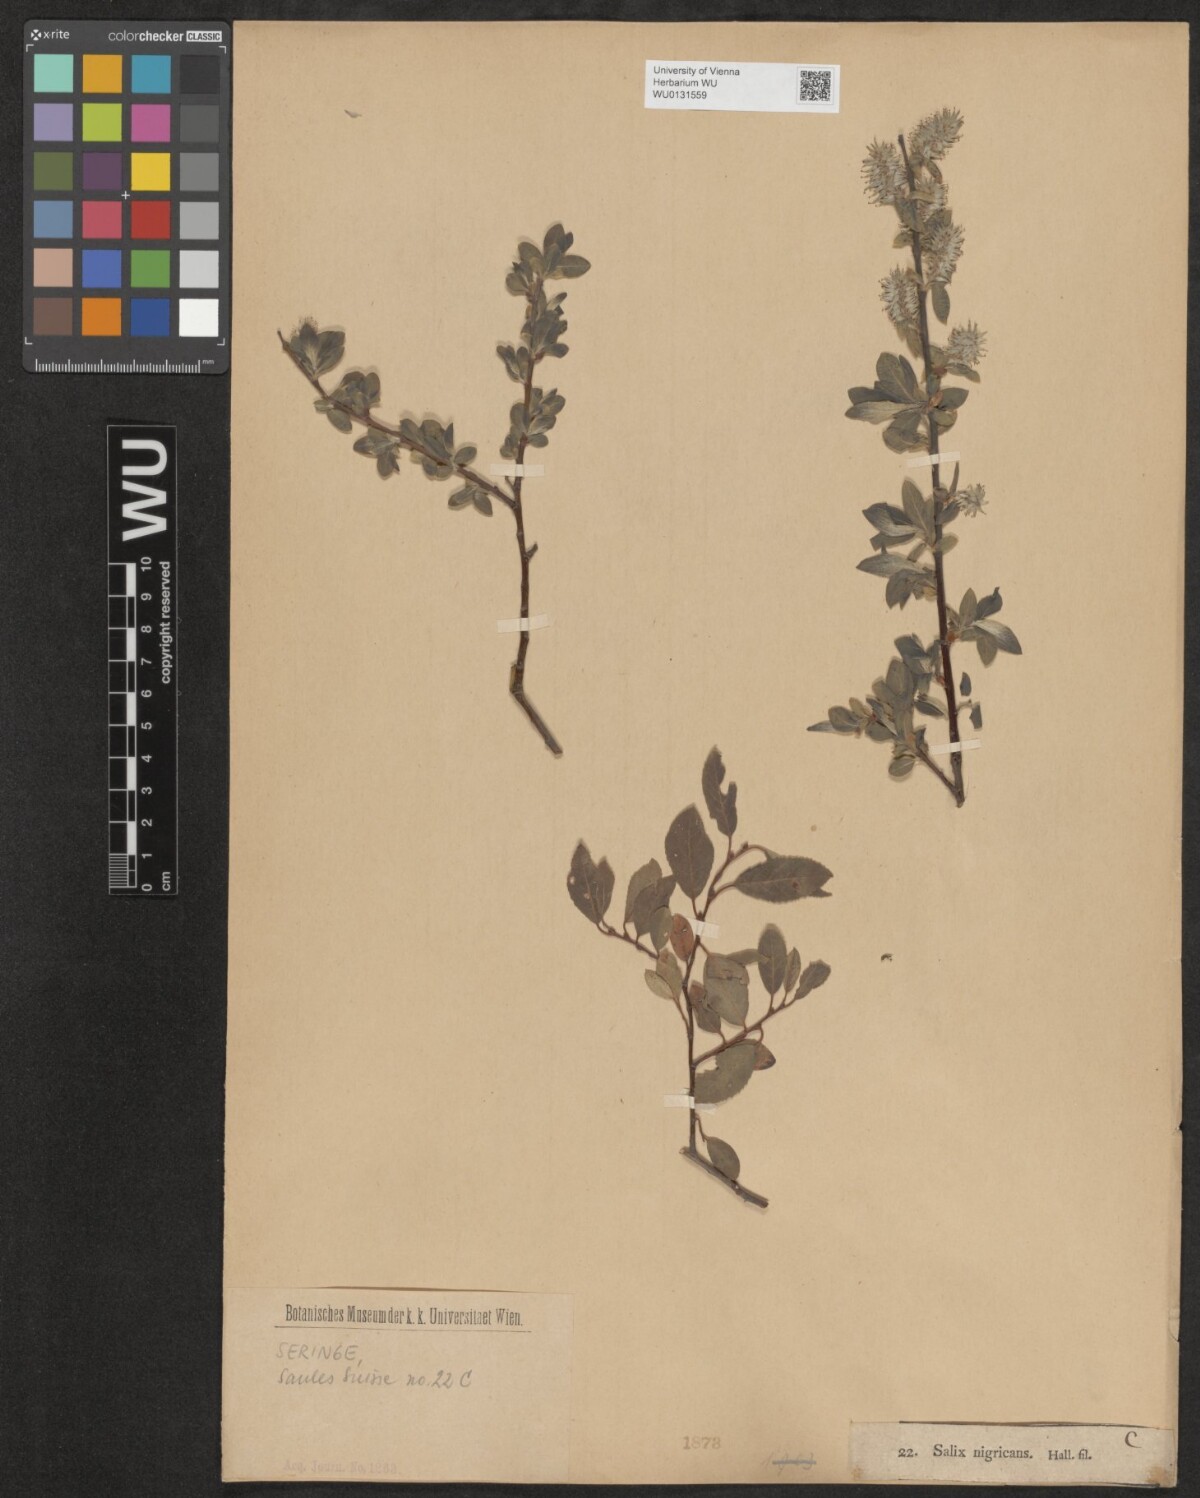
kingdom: Plantae
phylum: Tracheophyta
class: Magnoliopsida
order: Malpighiales
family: Salicaceae
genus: Salix
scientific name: Salix myrsinifolia
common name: Dark-leaved willow
